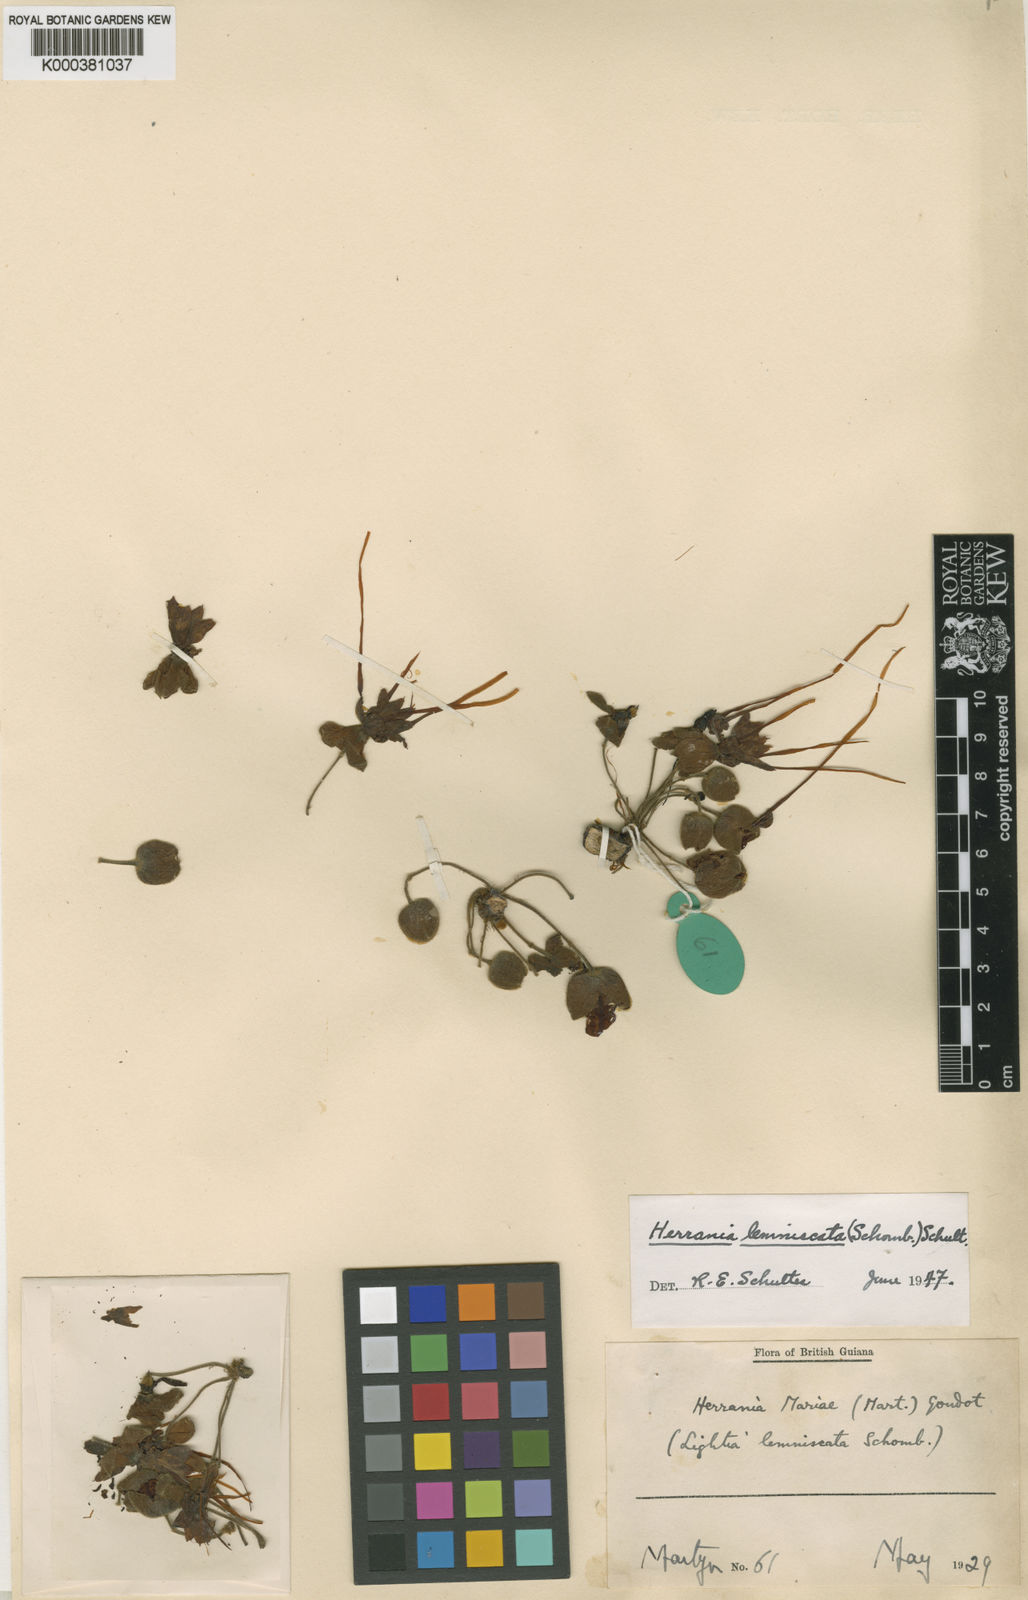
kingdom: Plantae
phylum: Tracheophyta
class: Magnoliopsida
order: Malvales
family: Malvaceae
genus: Herrania
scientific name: Herrania mariae
